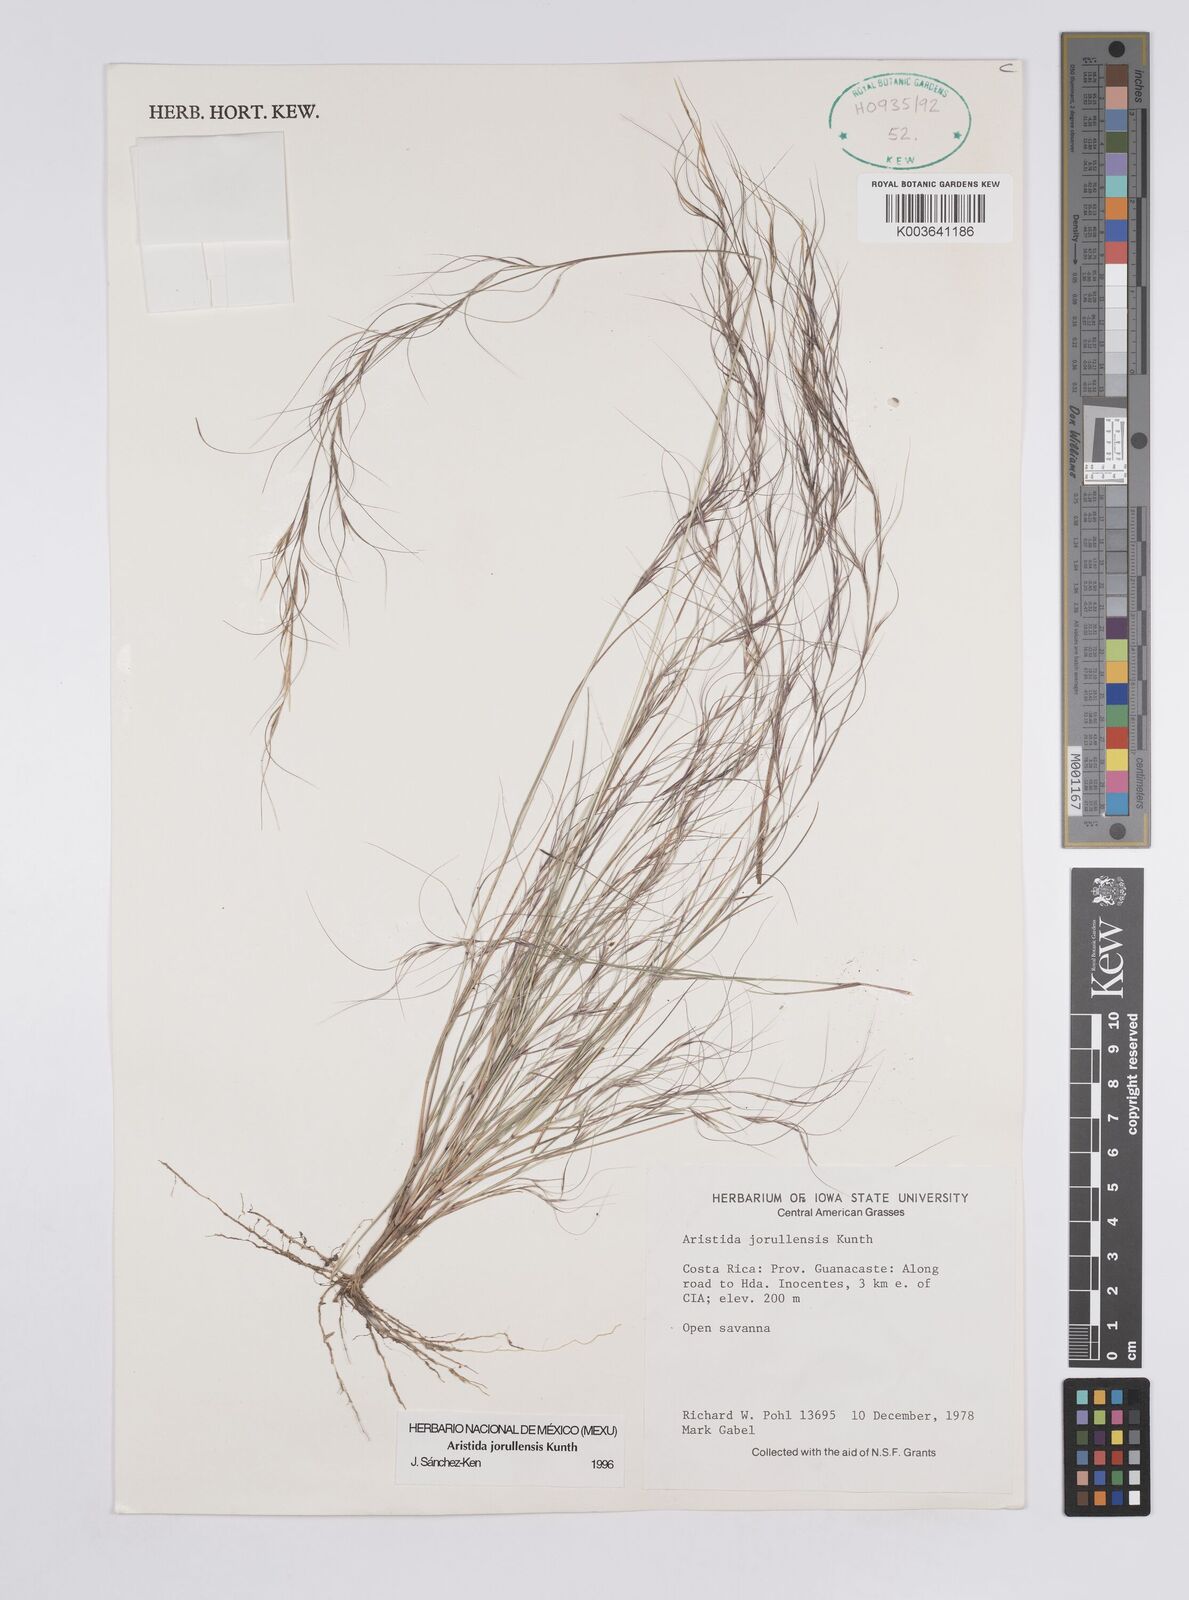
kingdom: Plantae
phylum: Tracheophyta
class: Liliopsida
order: Poales
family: Poaceae
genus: Aristida
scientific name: Aristida jorullensis
